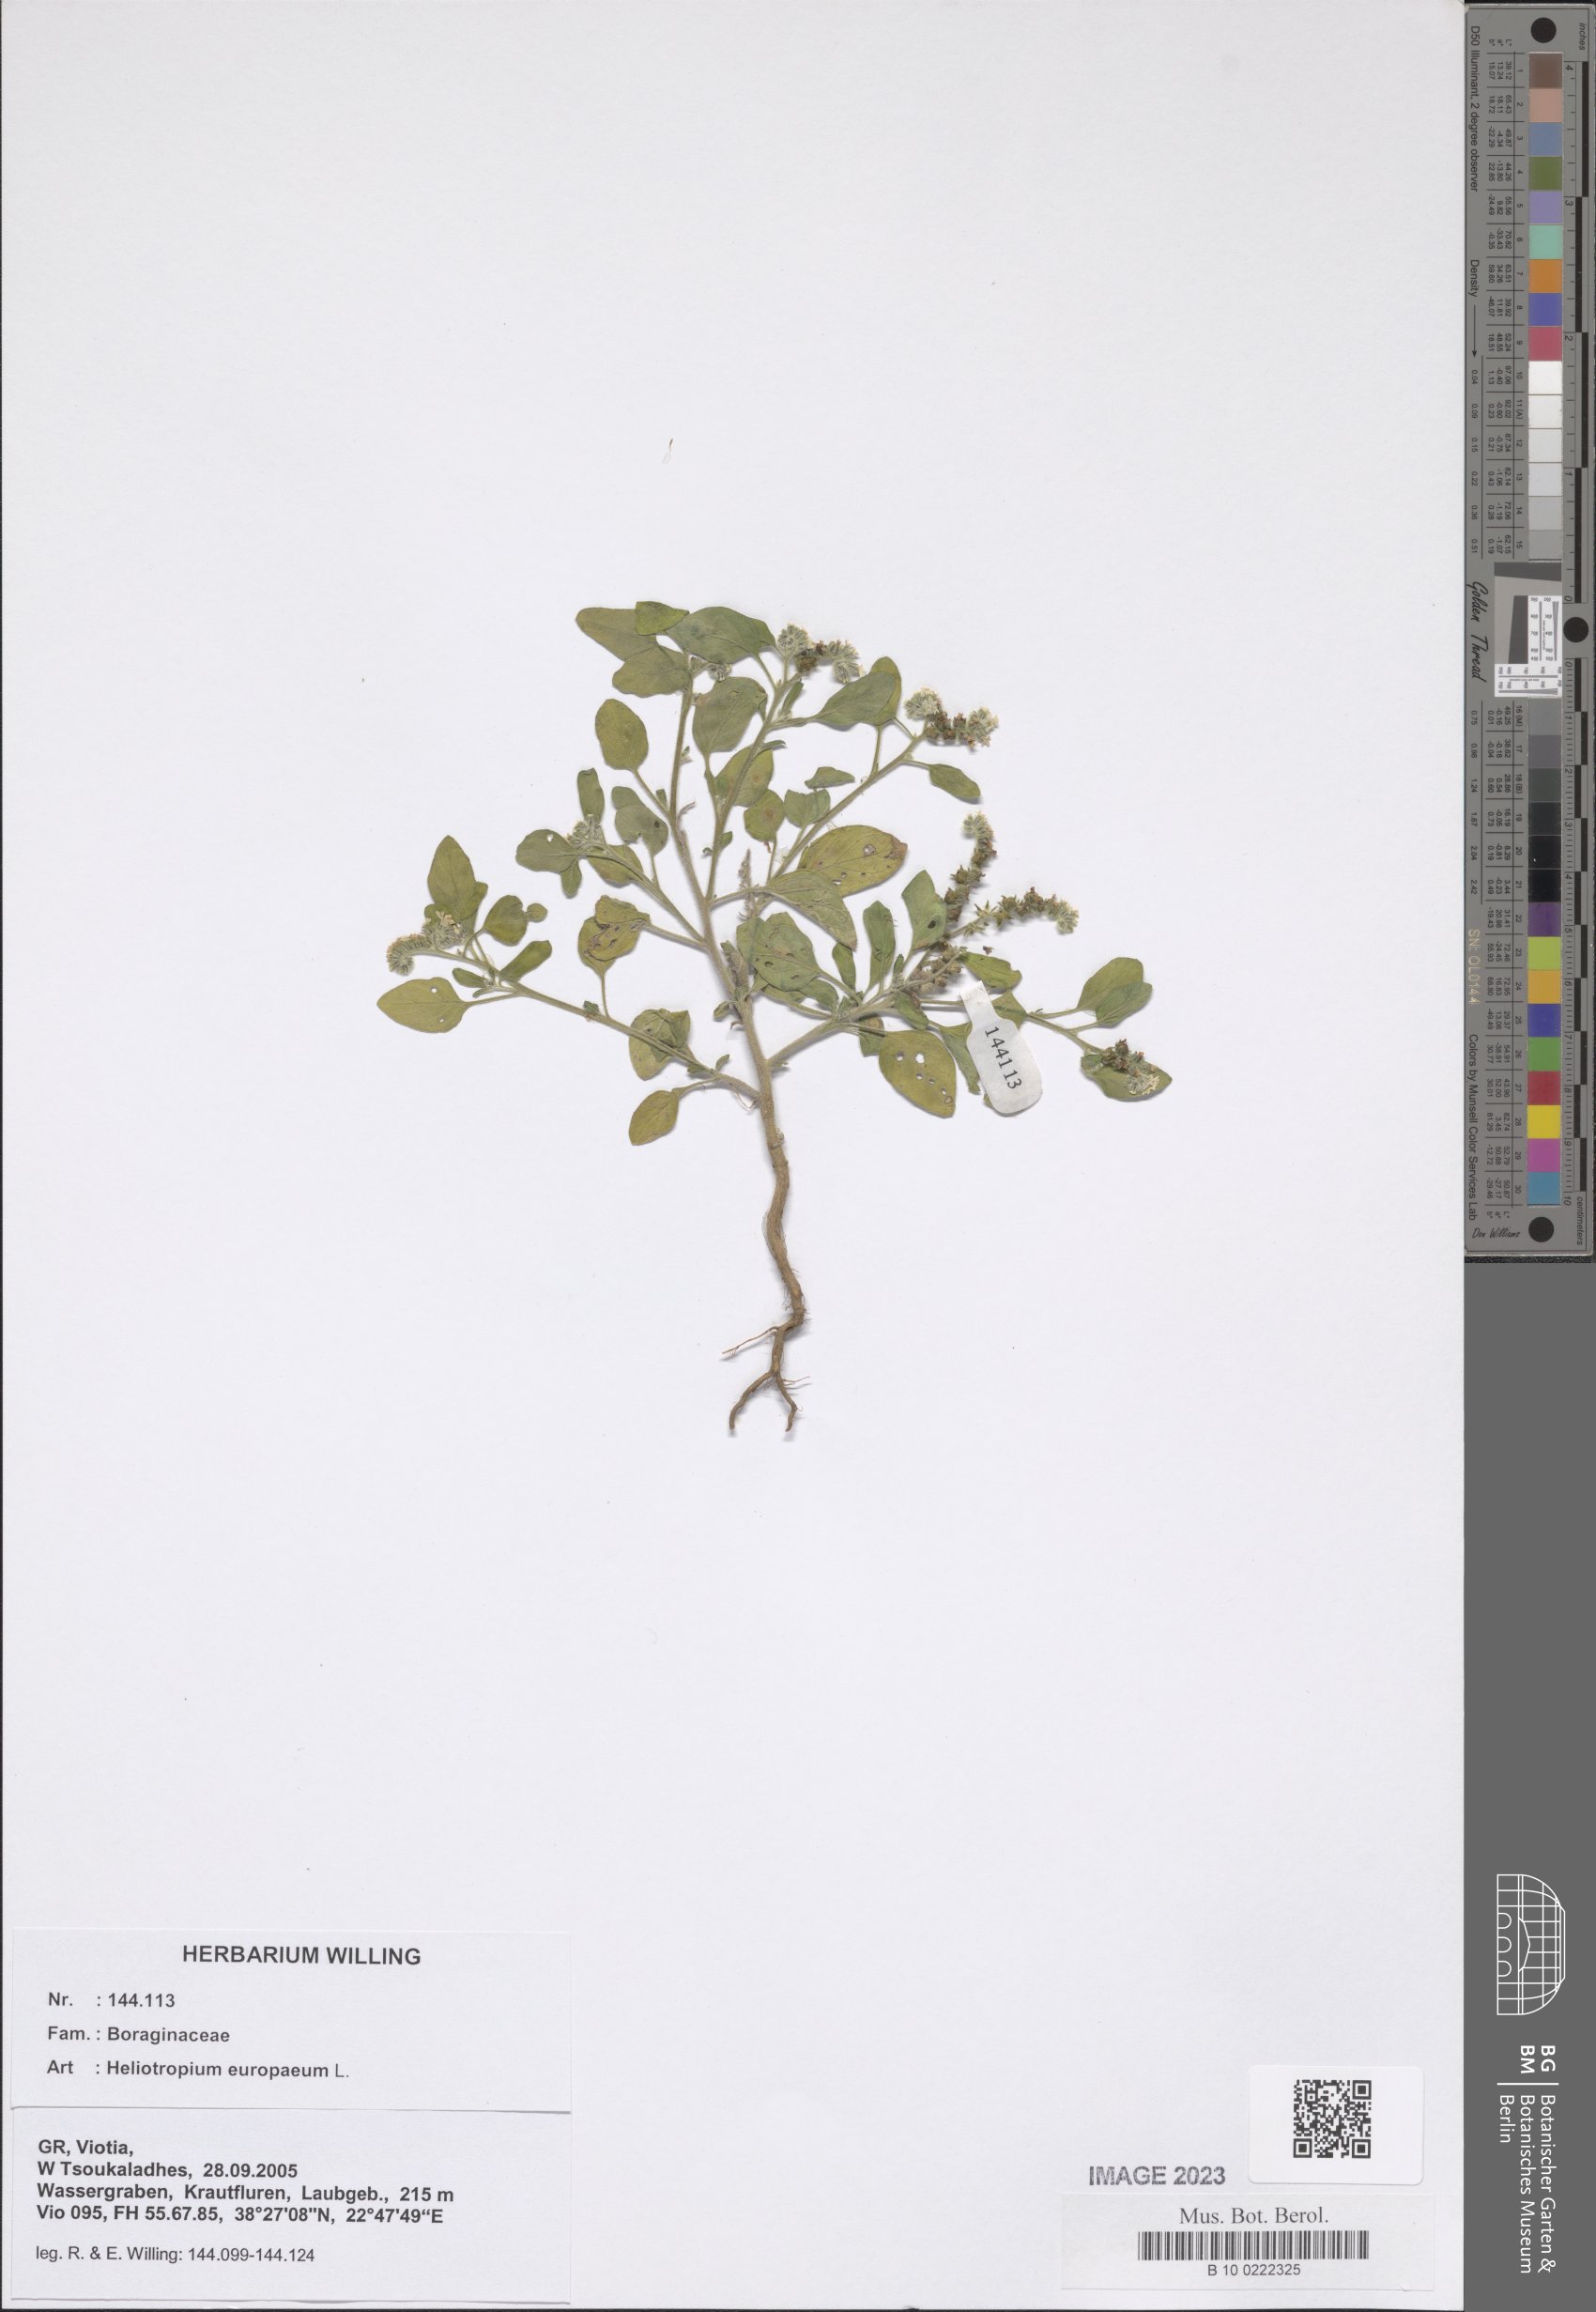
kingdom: Plantae
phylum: Tracheophyta
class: Magnoliopsida
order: Boraginales
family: Heliotropiaceae
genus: Heliotropium
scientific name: Heliotropium europaeum
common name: European heliotrope
